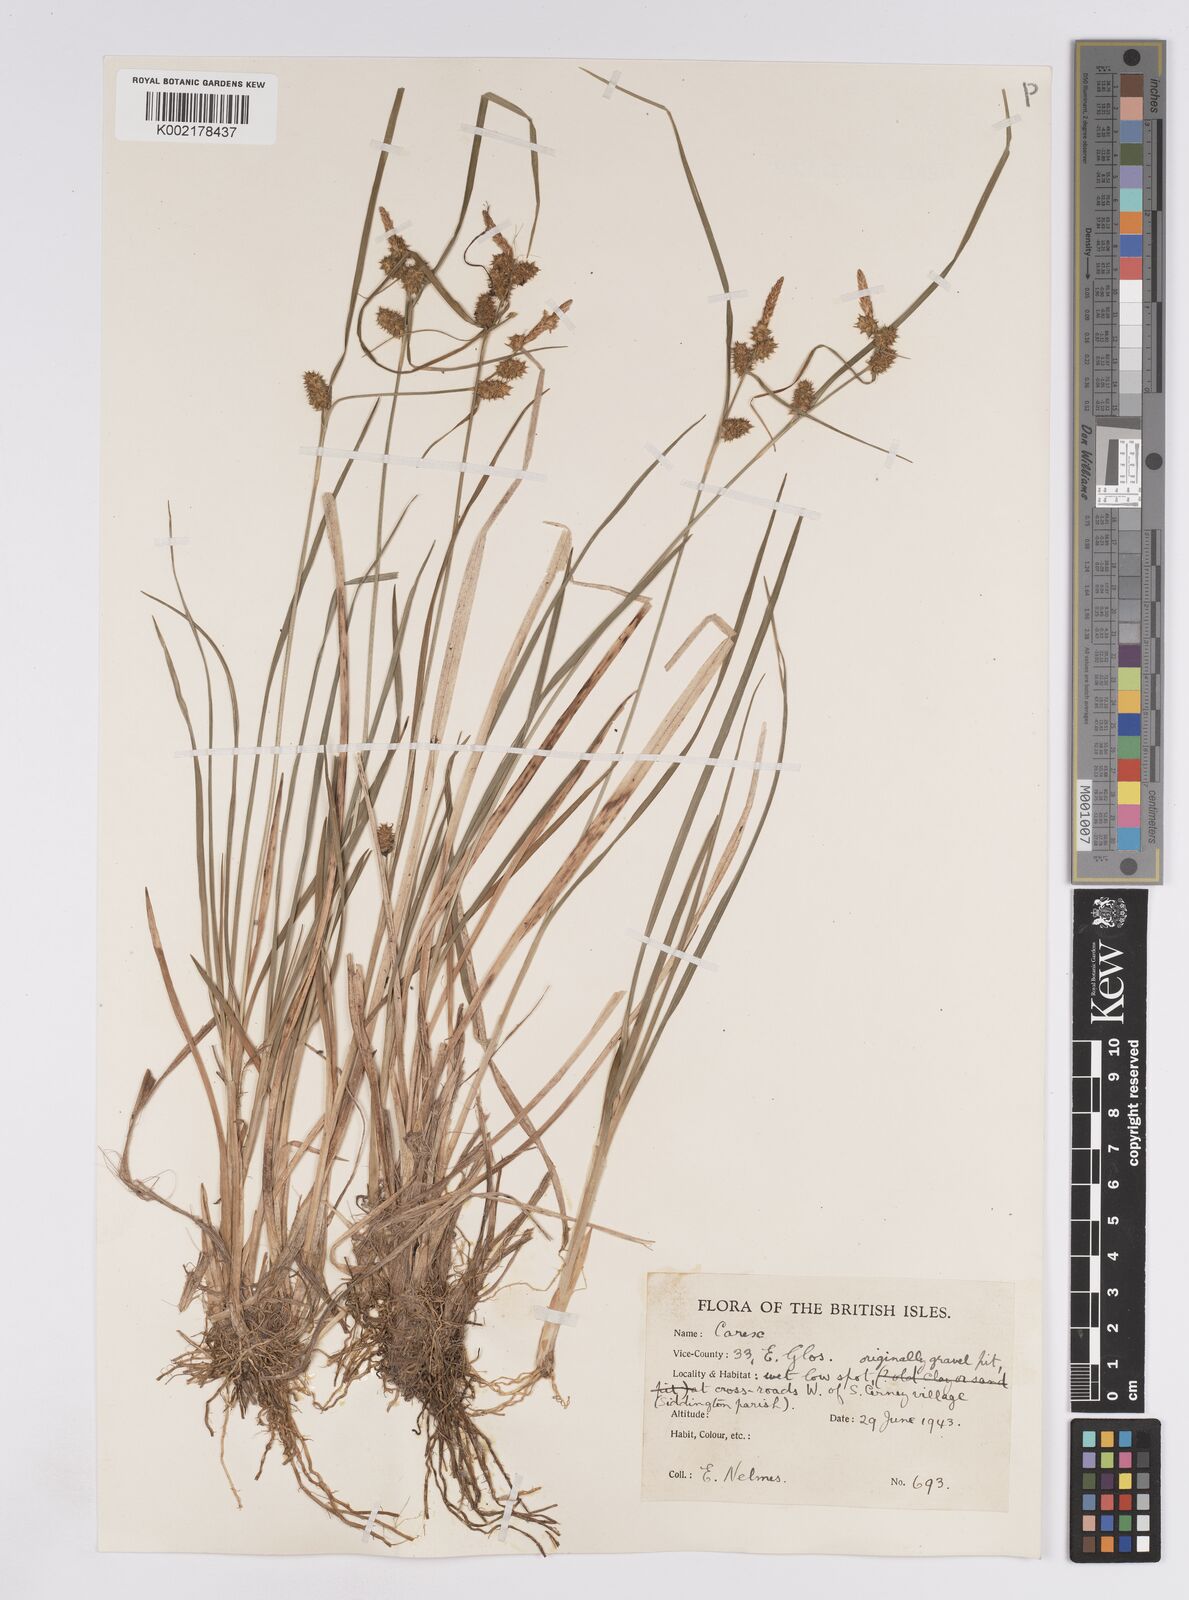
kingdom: Plantae
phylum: Tracheophyta
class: Liliopsida
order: Poales
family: Cyperaceae
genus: Carex
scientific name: Carex lepidocarpa
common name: Long-stalked yellow-sedge
